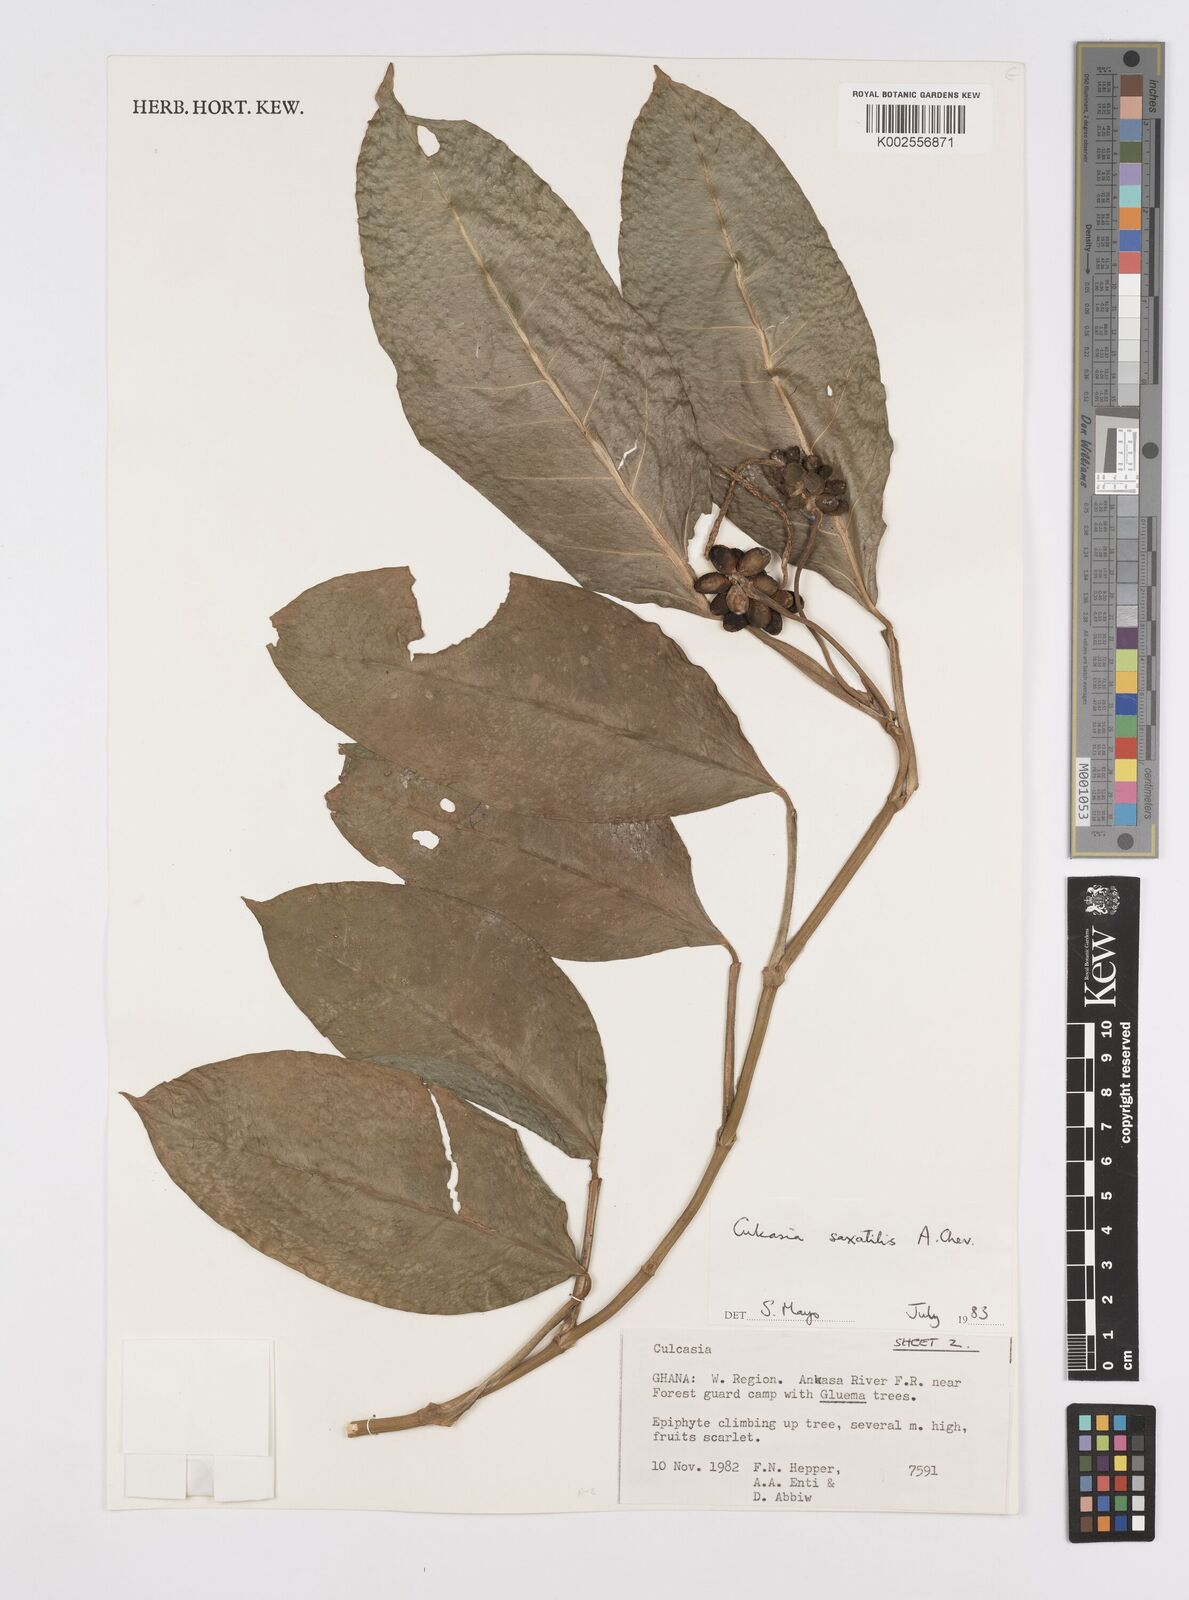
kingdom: Plantae
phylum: Tracheophyta
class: Liliopsida
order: Alismatales
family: Araceae
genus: Culcasia
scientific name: Culcasia scandens
